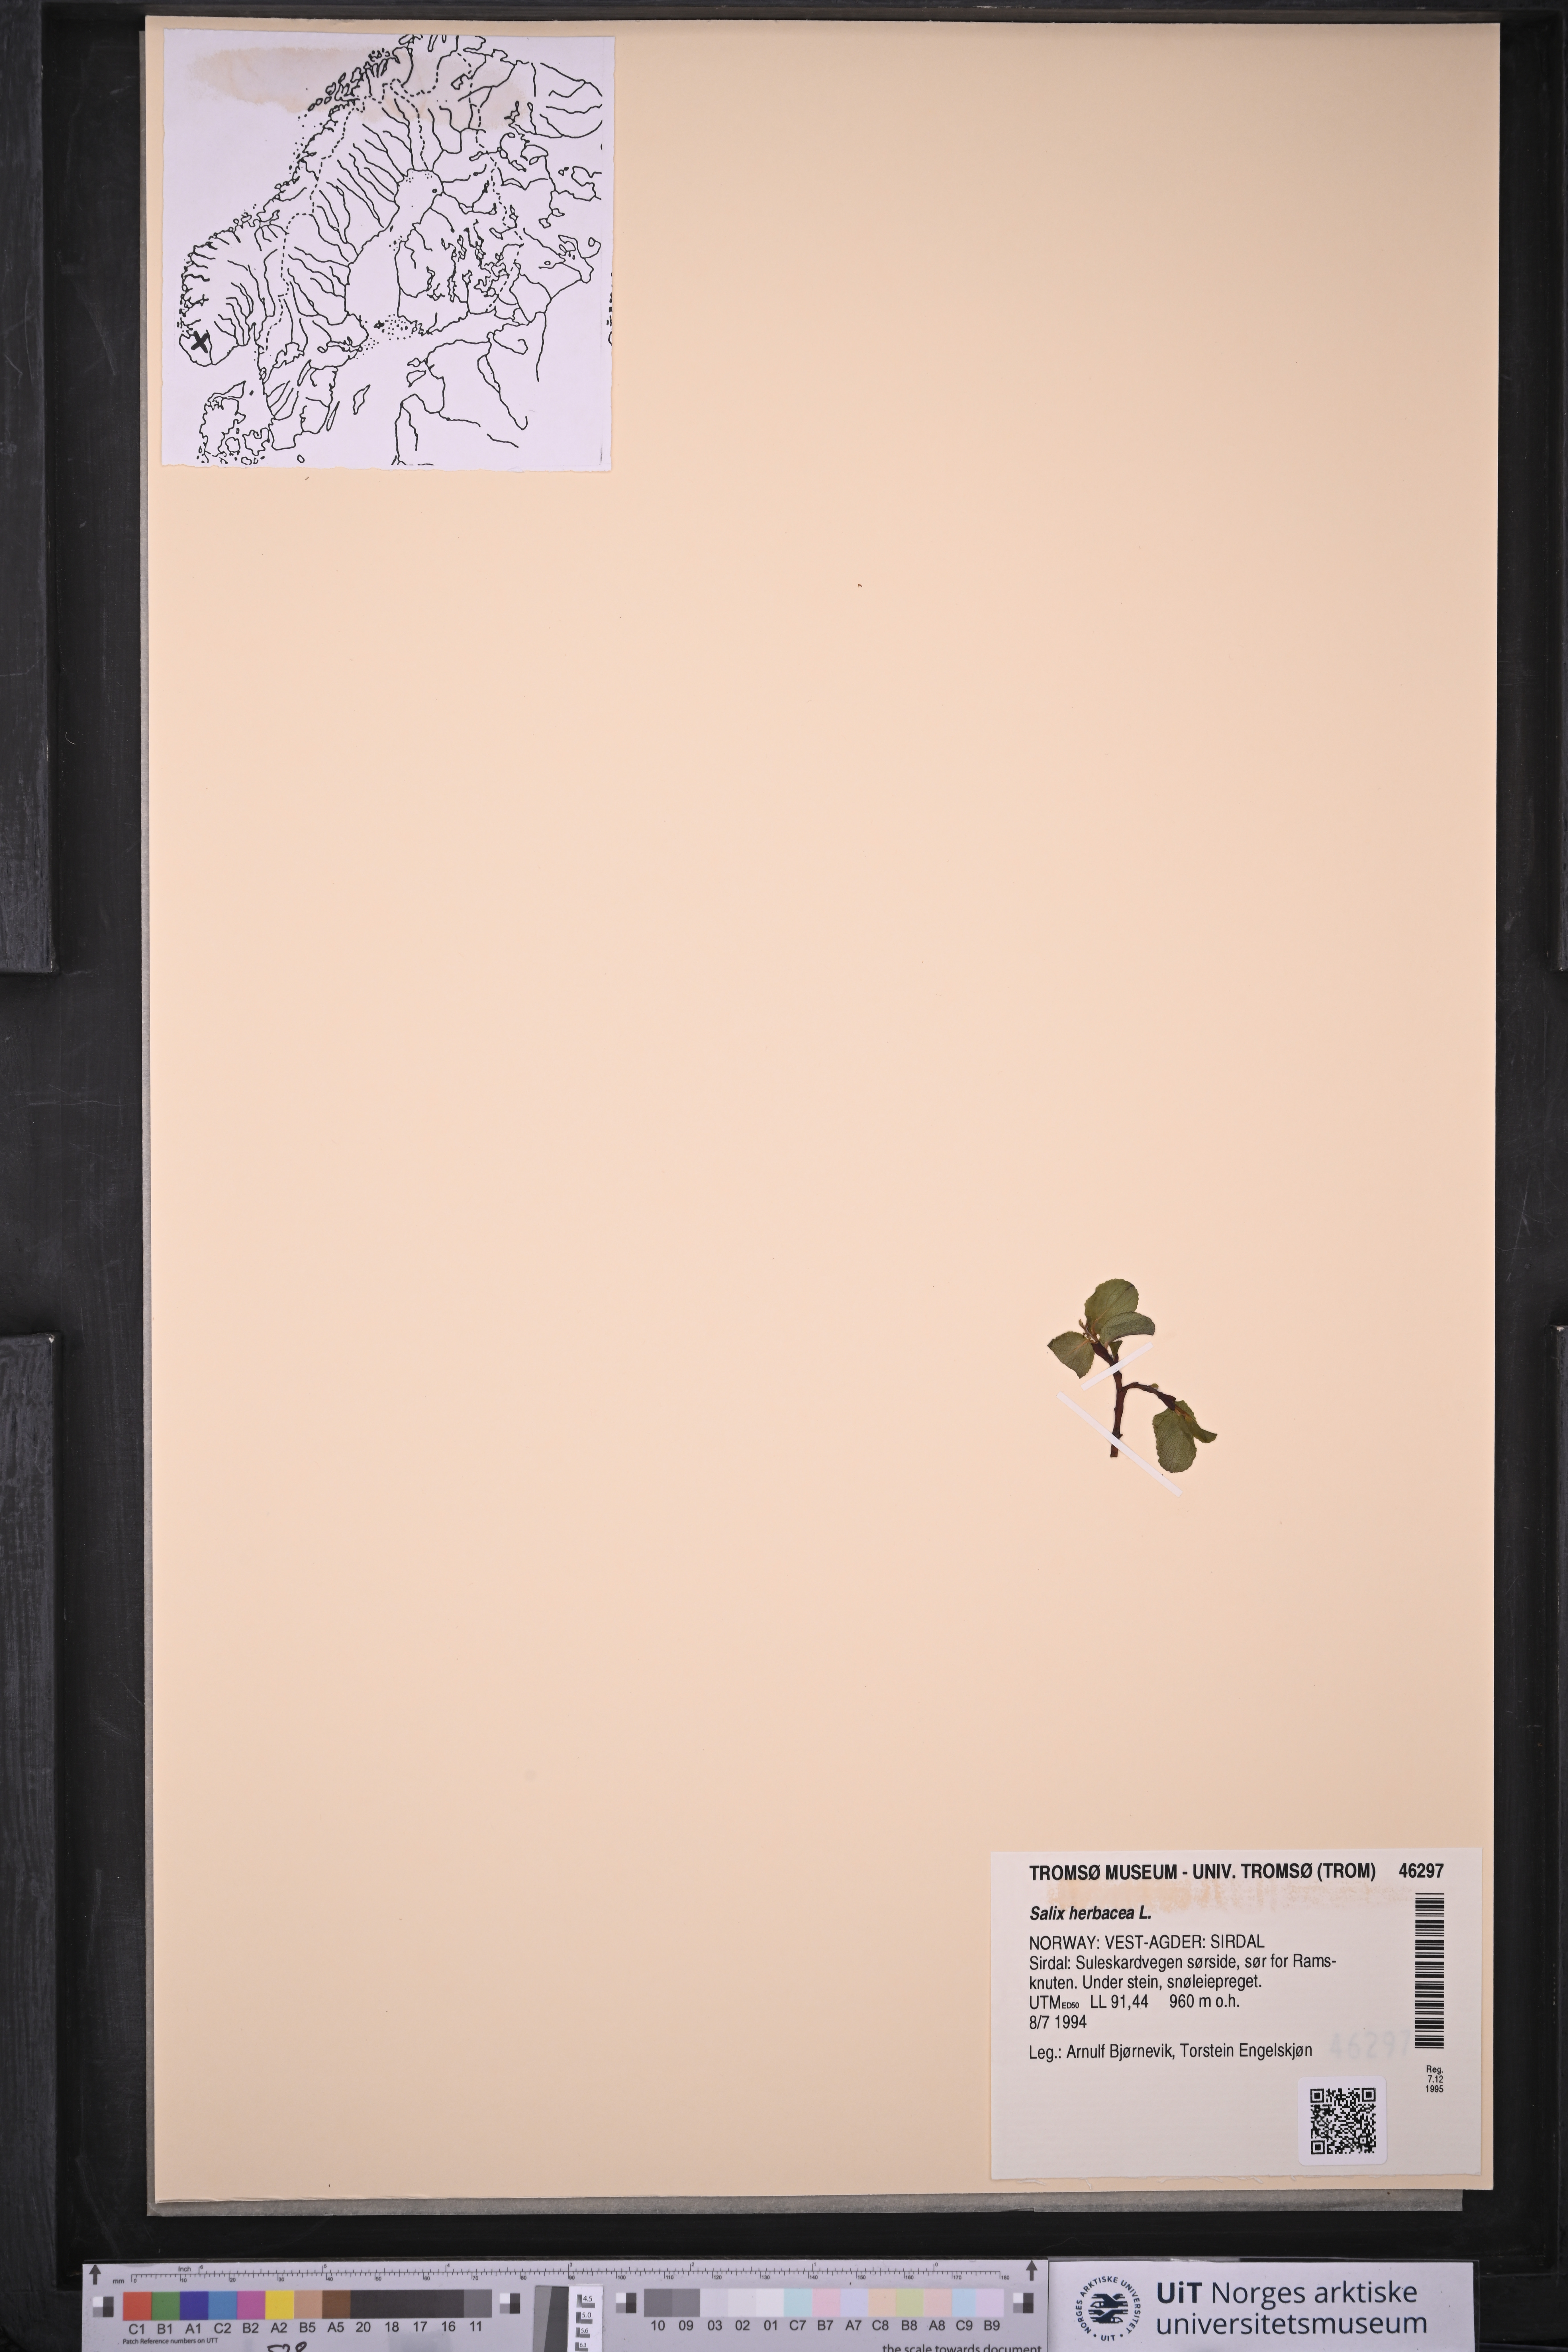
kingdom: Plantae
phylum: Tracheophyta
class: Magnoliopsida
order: Malpighiales
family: Salicaceae
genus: Salix
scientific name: Salix herbacea
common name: Dwarf willow
